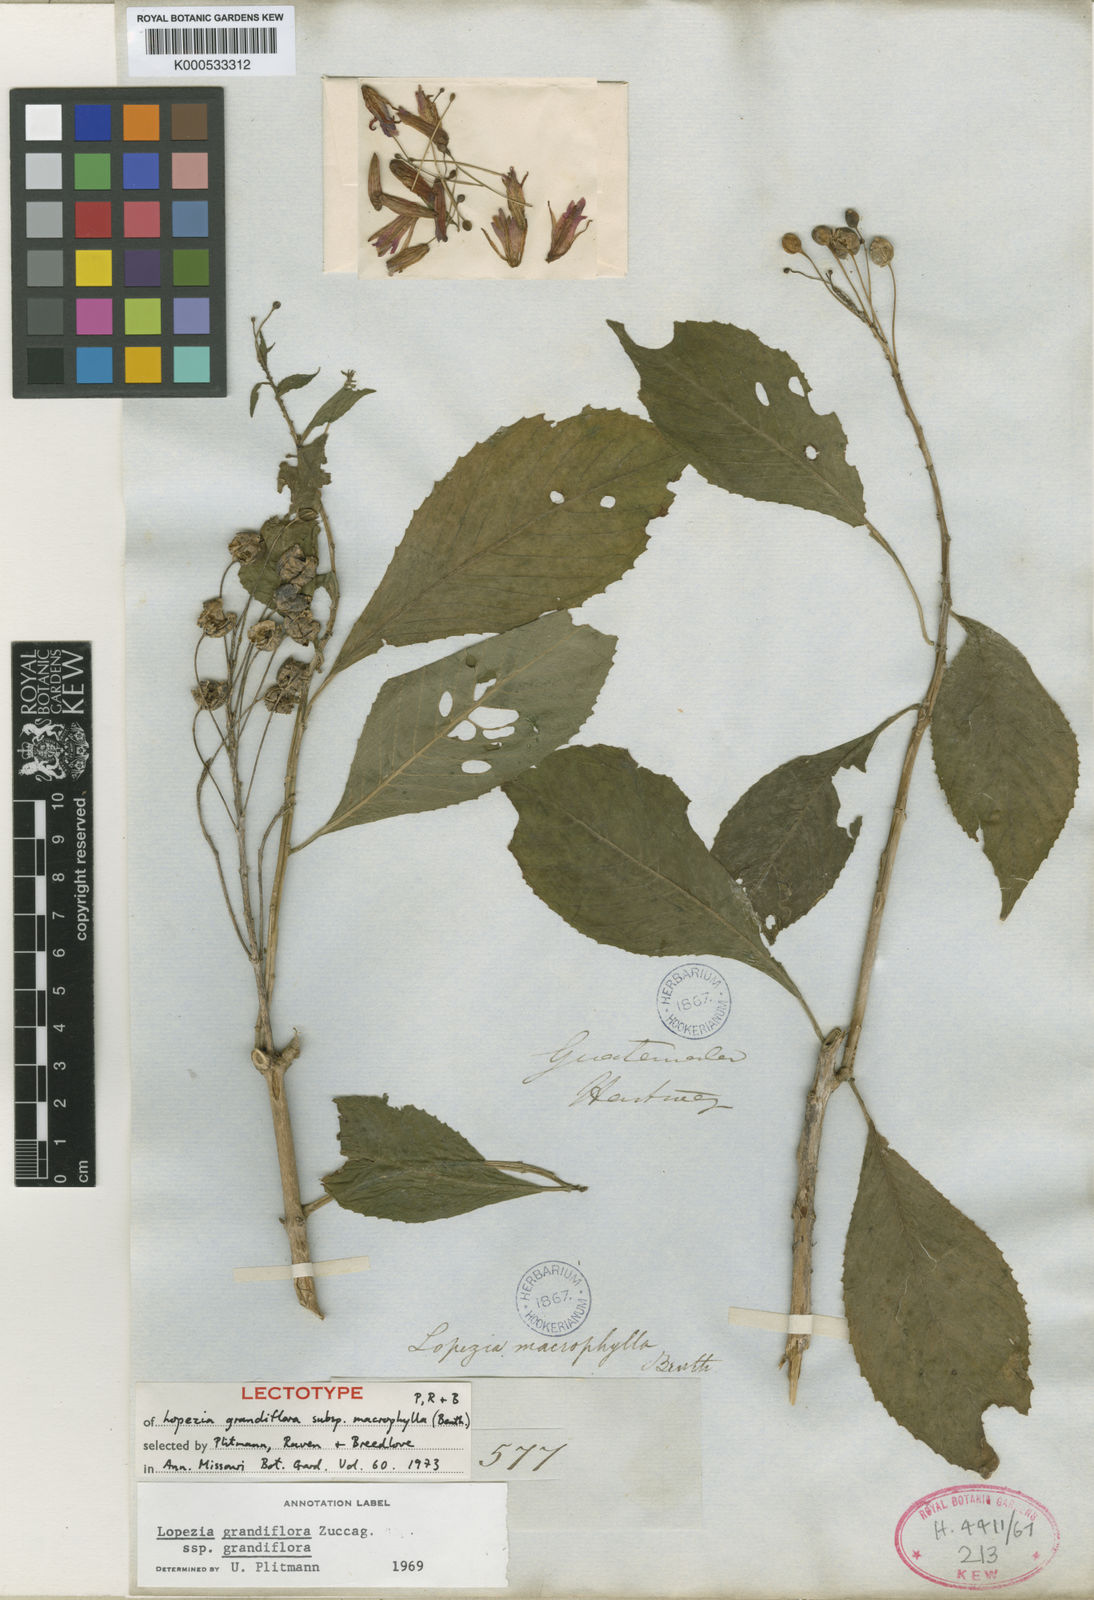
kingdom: Plantae
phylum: Tracheophyta
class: Magnoliopsida
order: Myrtales
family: Onagraceae
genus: Lopezia
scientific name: Lopezia grandiflora
